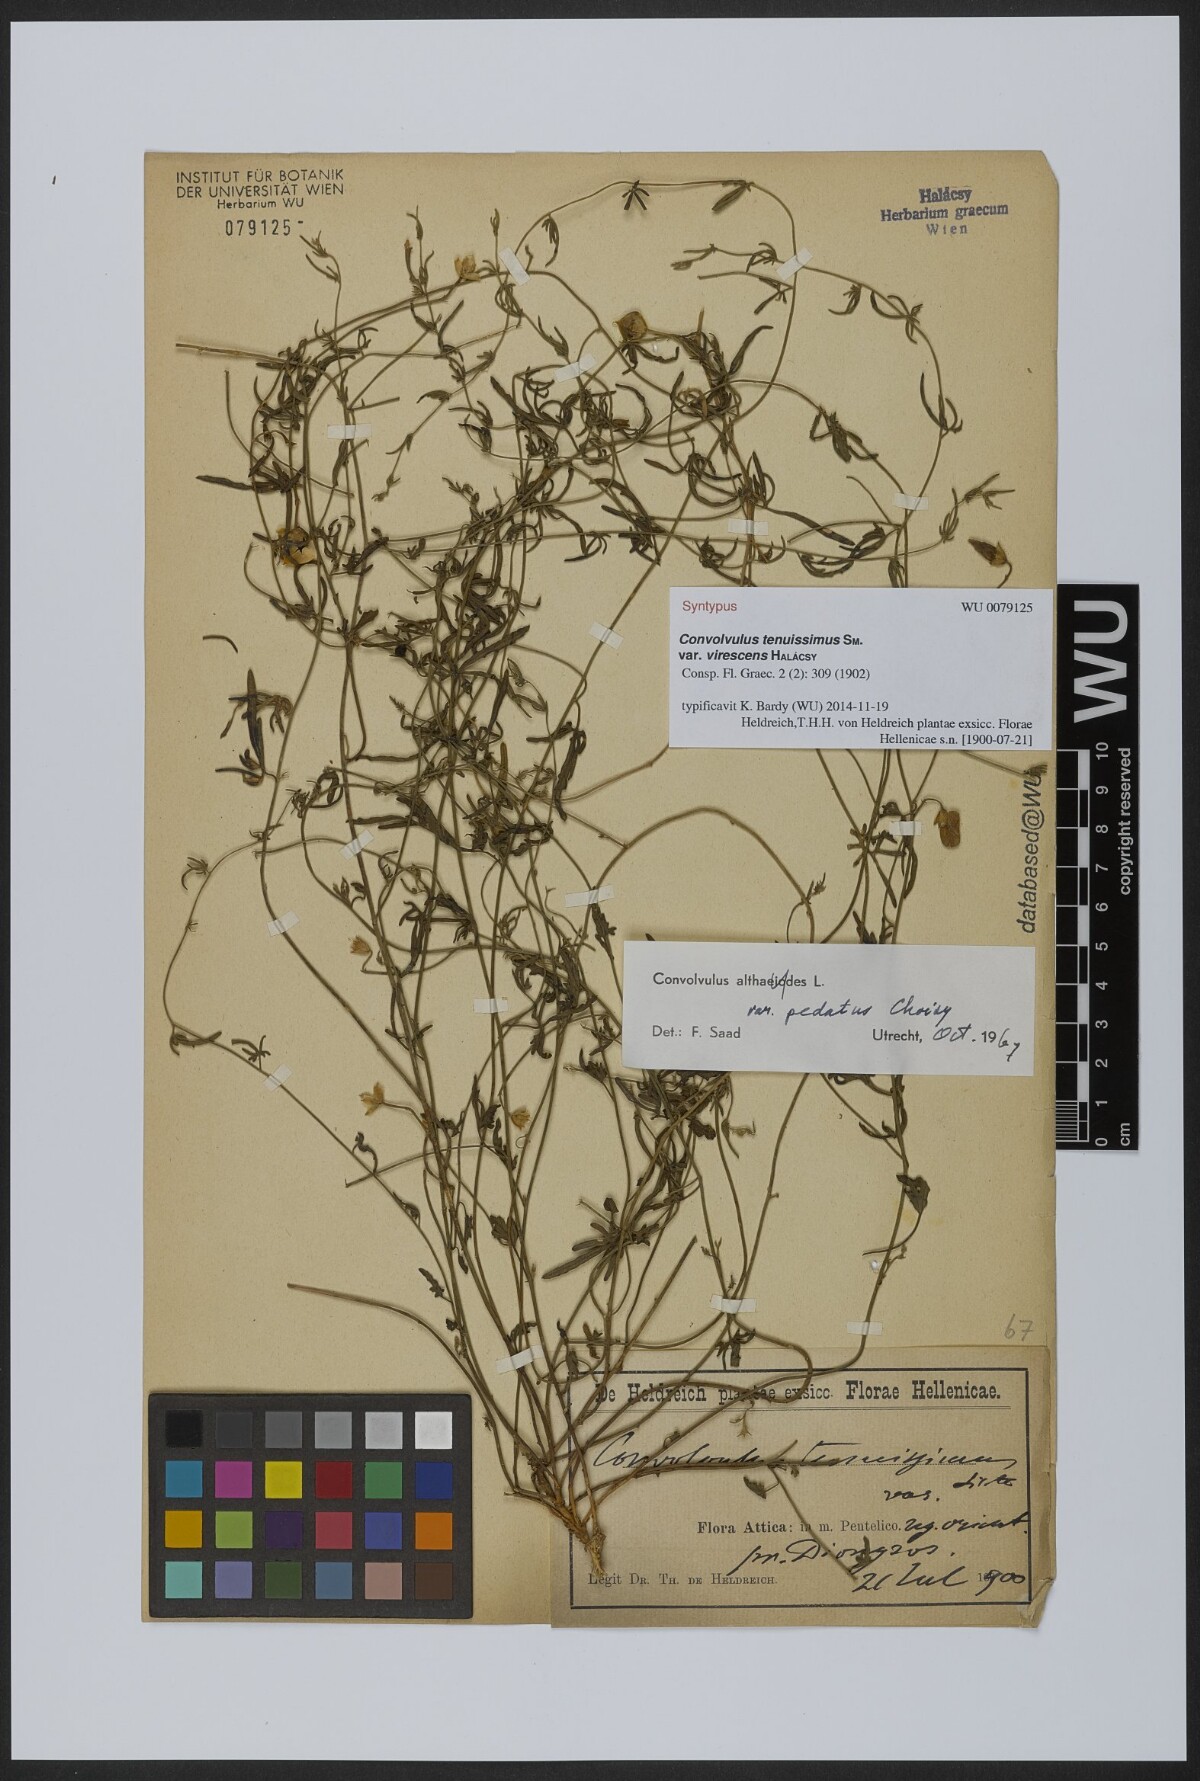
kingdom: Plantae
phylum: Tracheophyta
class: Magnoliopsida
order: Solanales
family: Convolvulaceae
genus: Convolvulus
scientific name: Convolvulus elegantissimus
